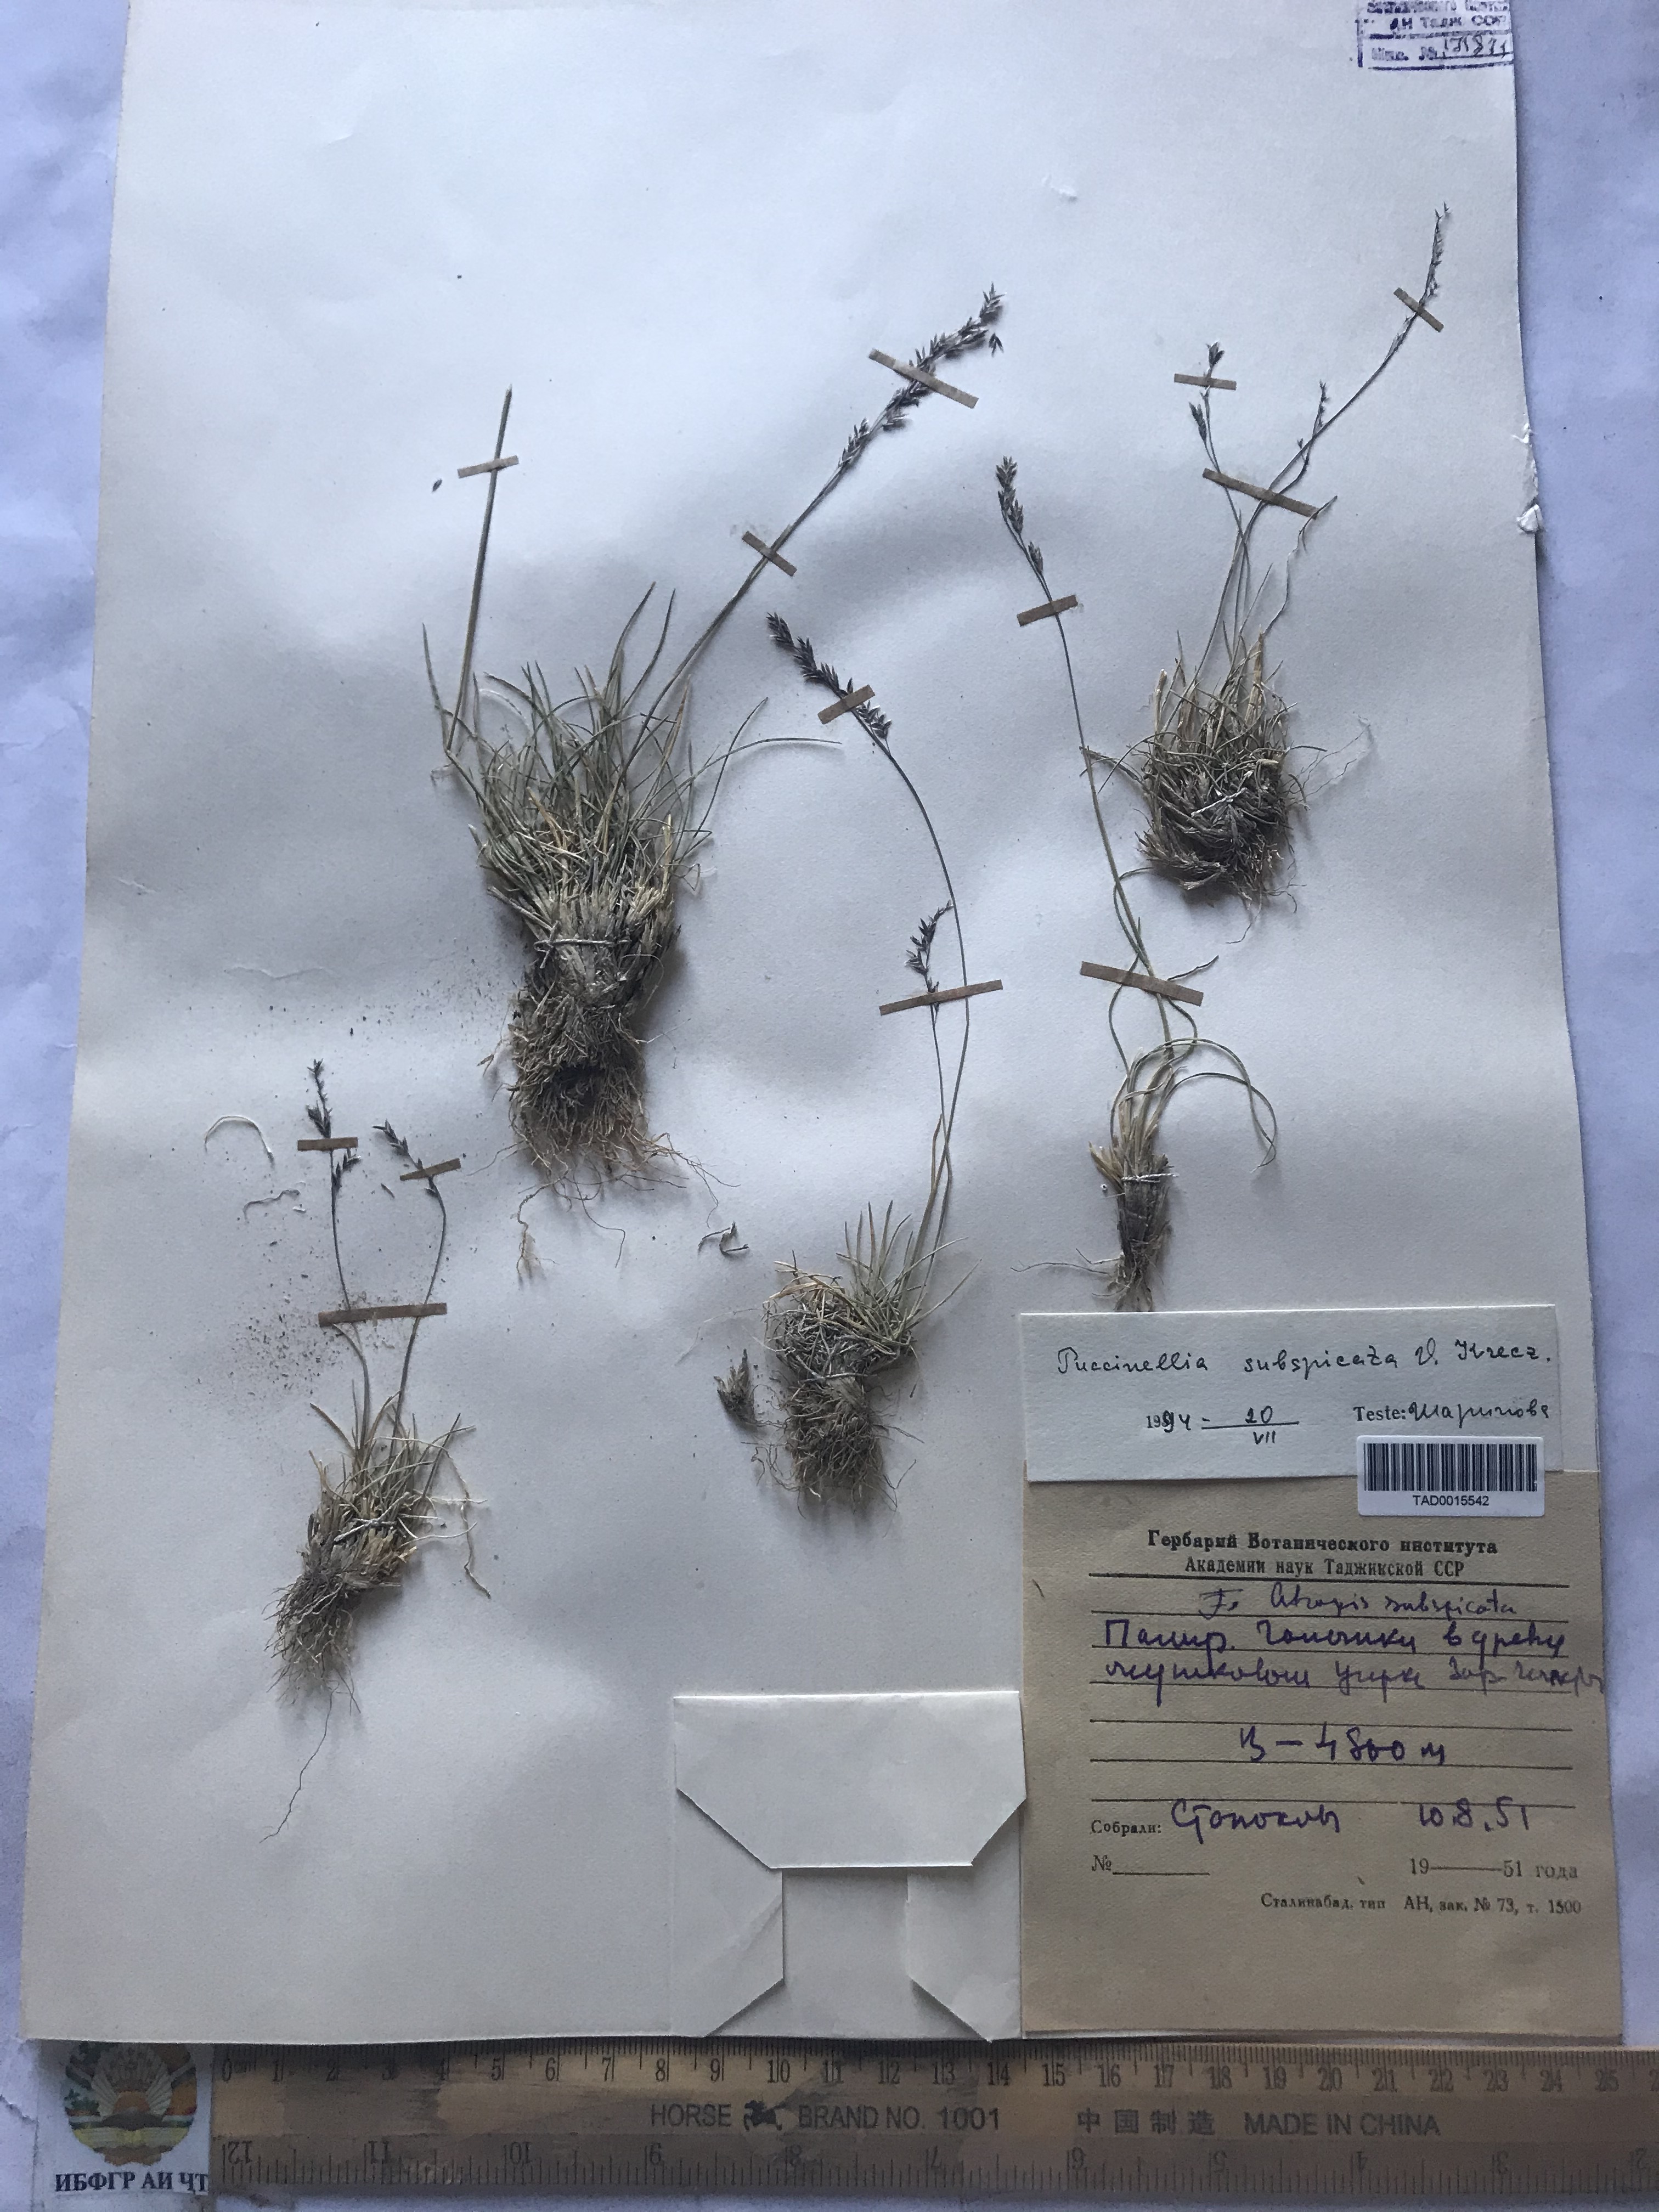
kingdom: Plantae
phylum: Tracheophyta
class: Liliopsida
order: Poales
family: Poaceae
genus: Puccinellia
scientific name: Puccinellia subspicata
